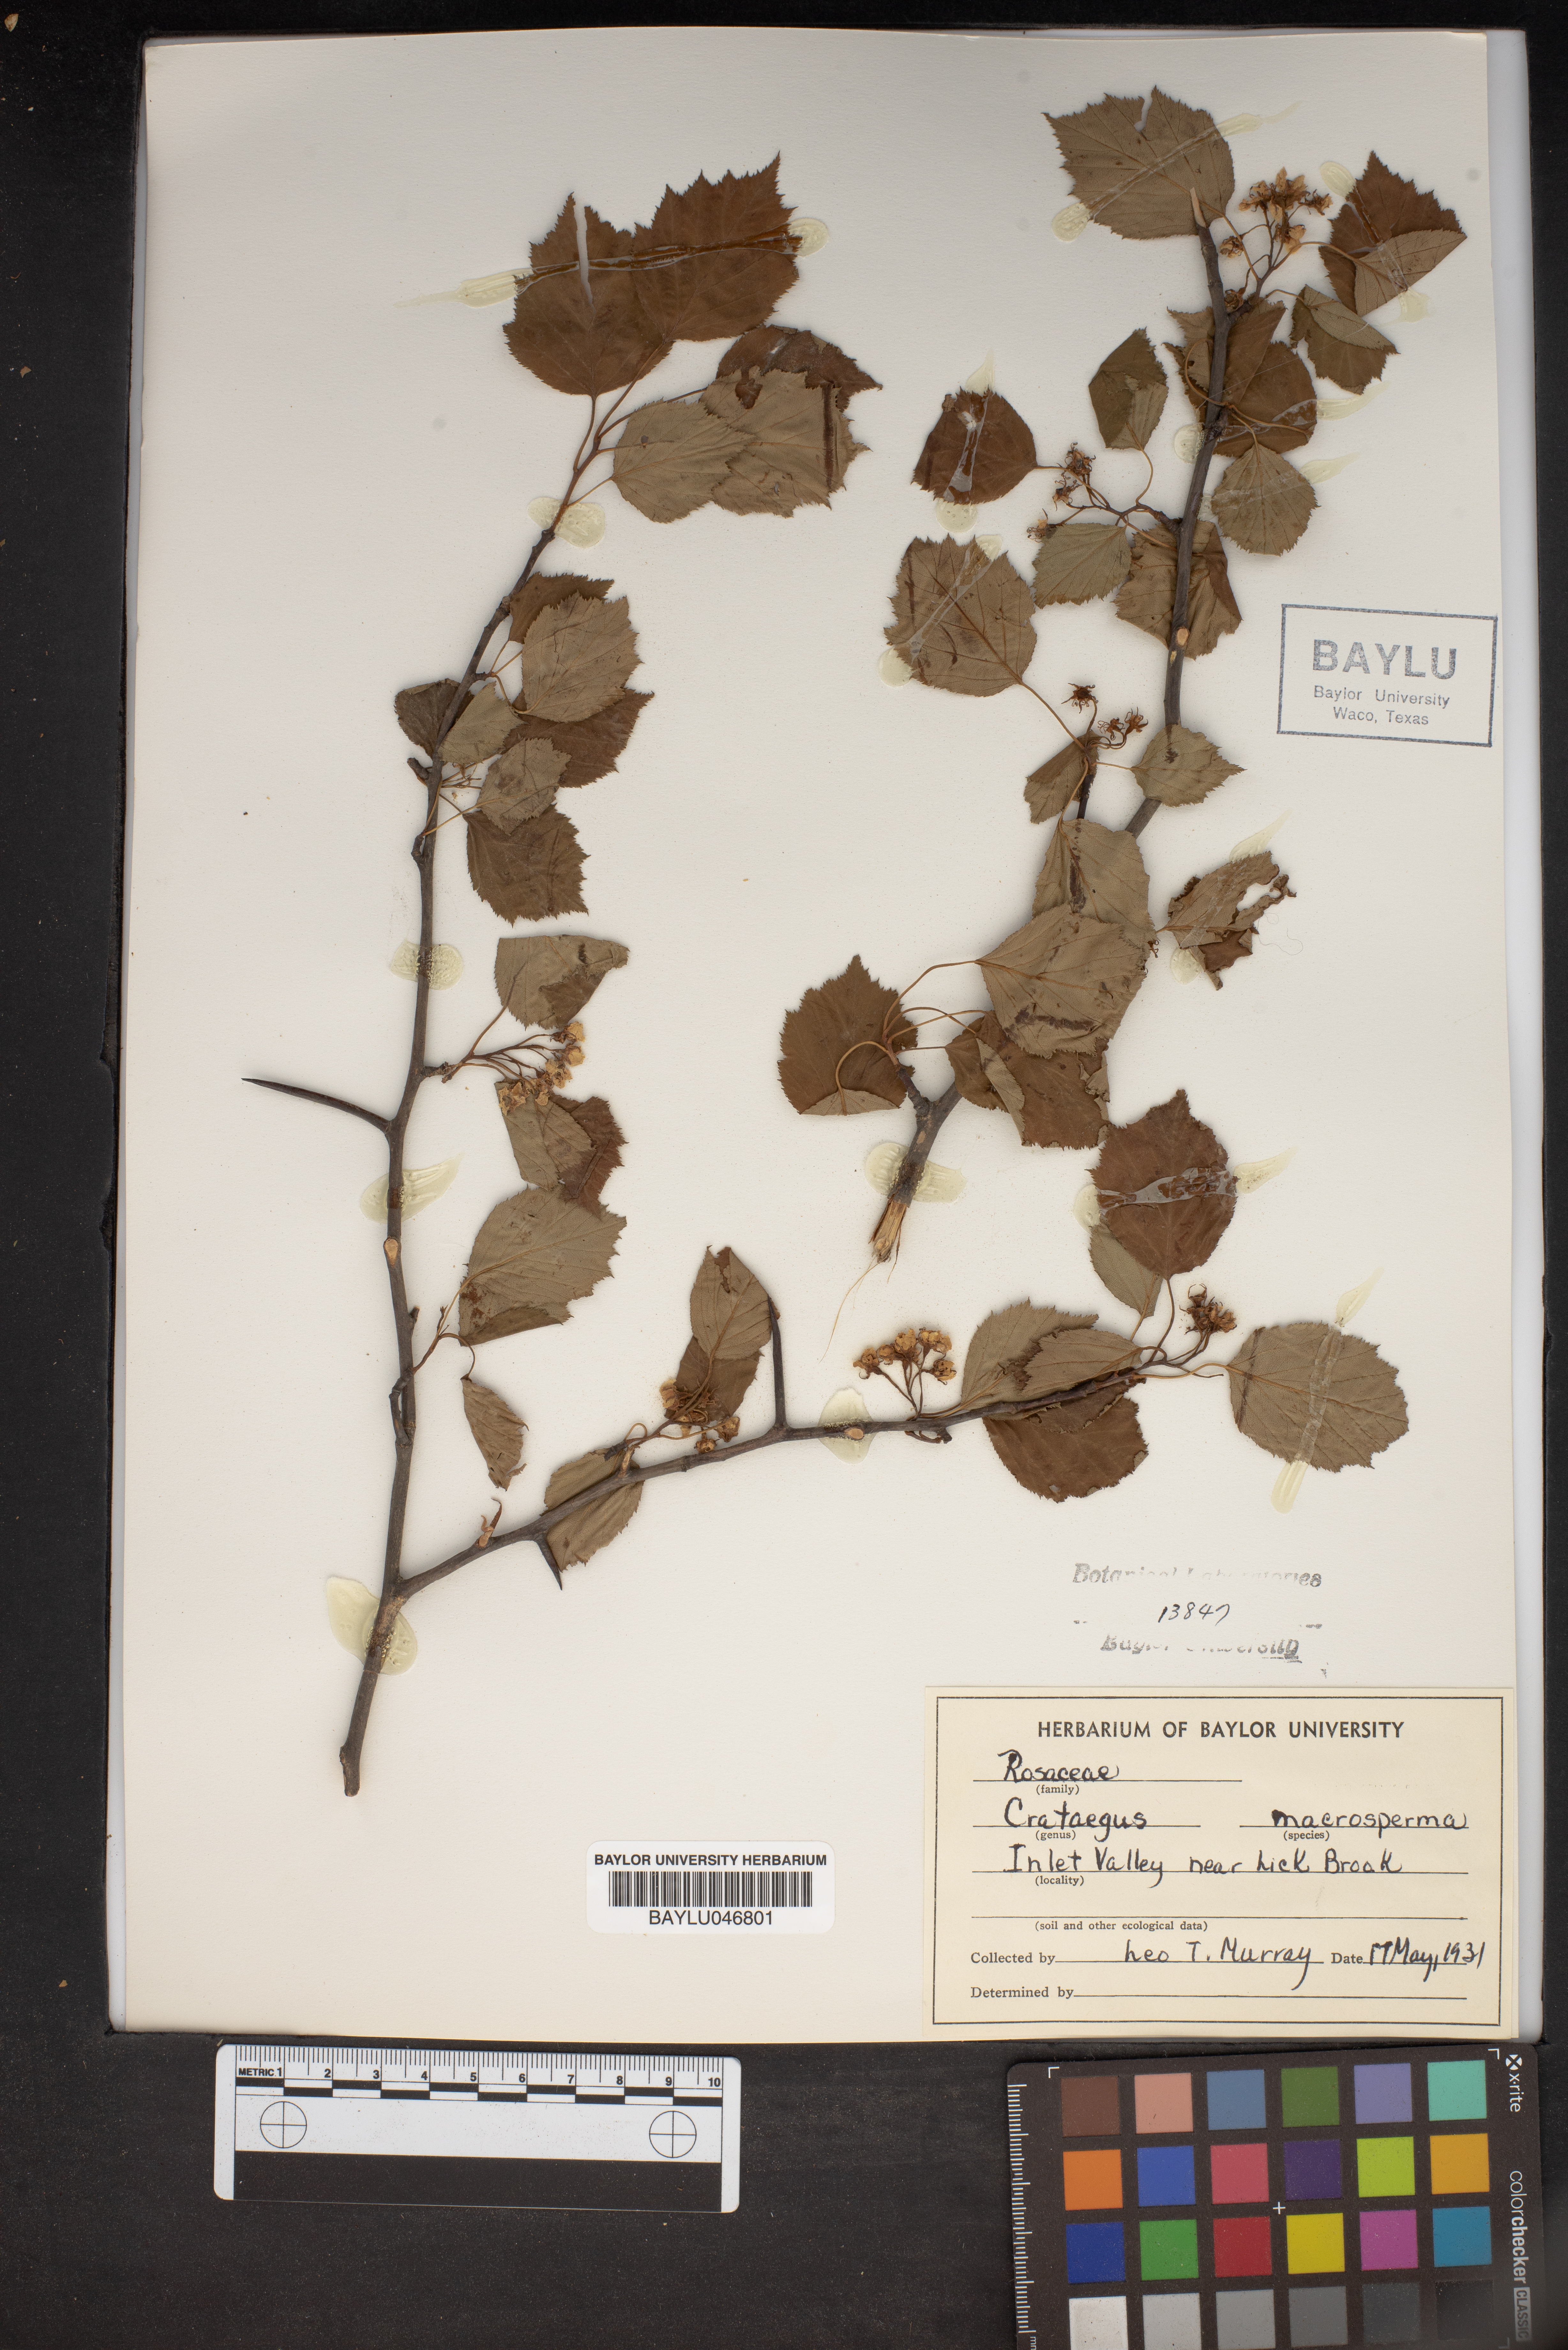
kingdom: Plantae
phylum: Tracheophyta
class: Magnoliopsida
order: Rosales
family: Rosaceae
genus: Crataegus
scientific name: Crataegus macrosperma
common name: Variable hawthorn
